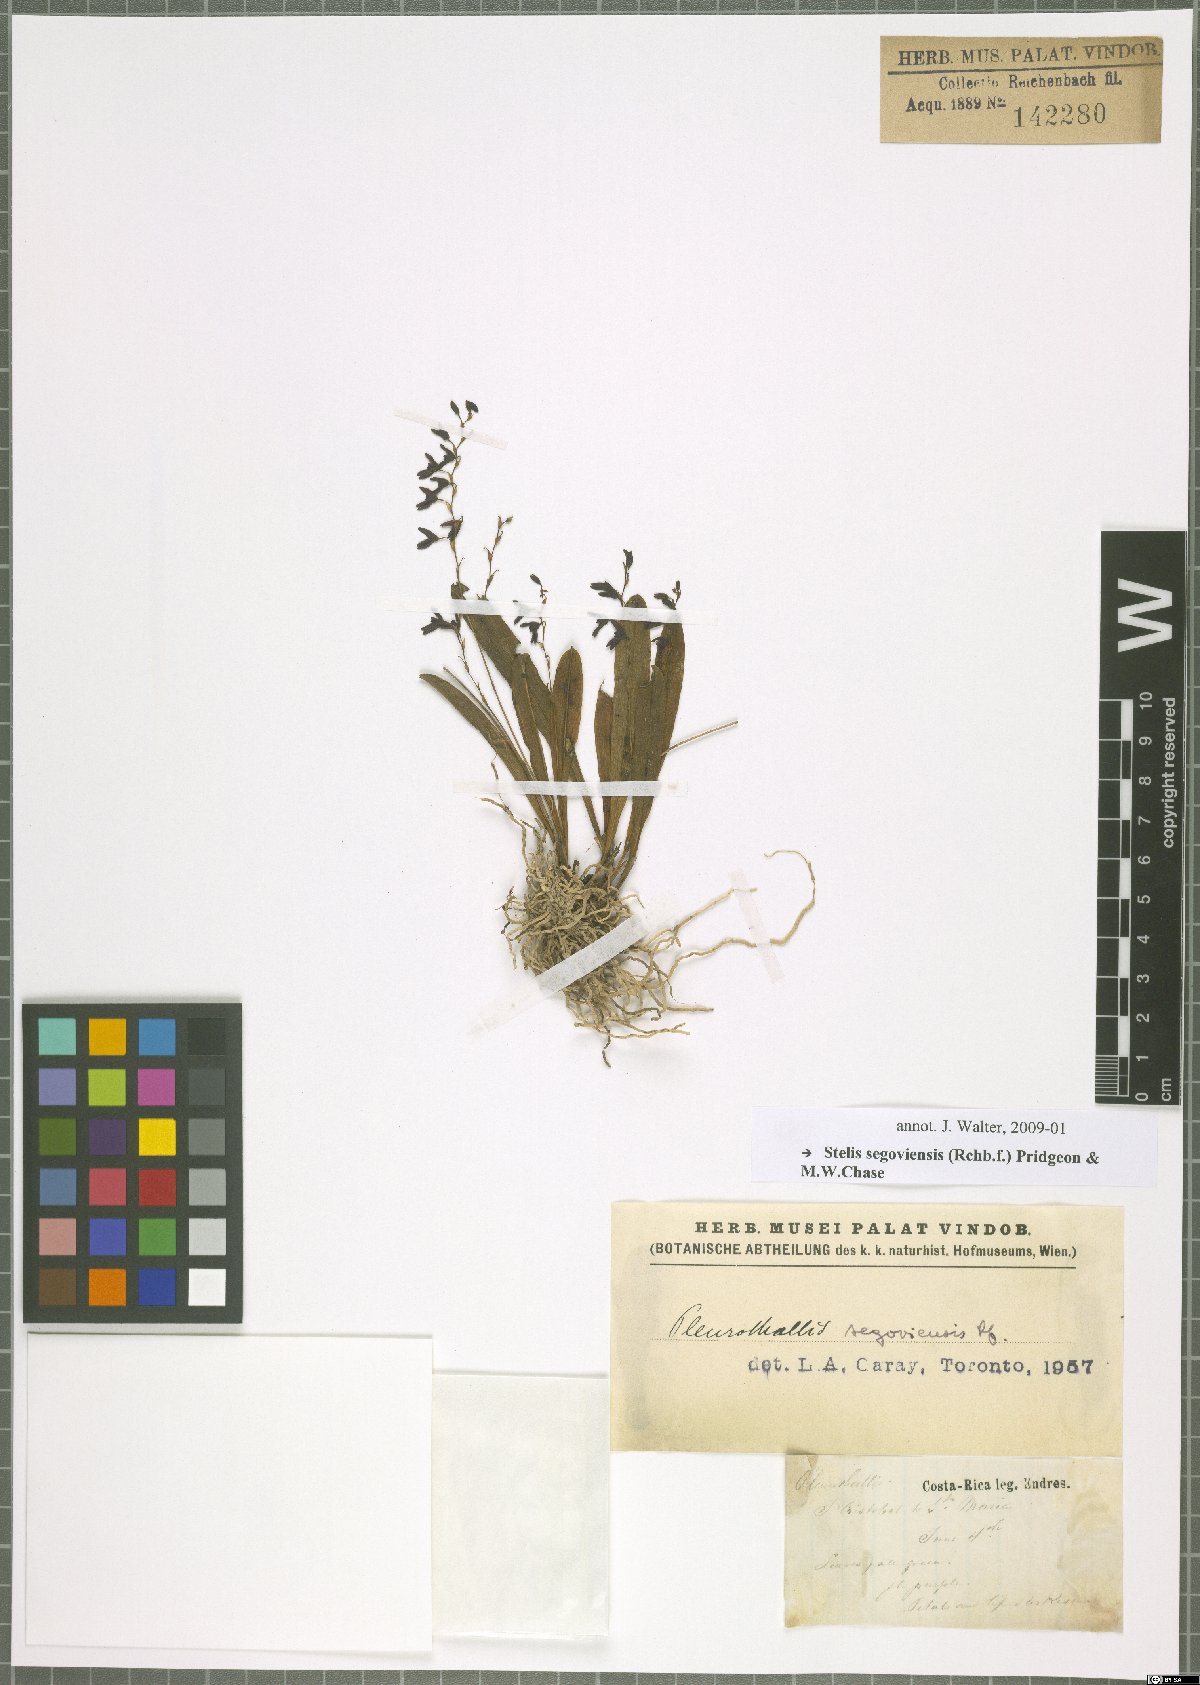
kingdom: Plantae
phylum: Tracheophyta
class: Liliopsida
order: Asparagales
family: Orchidaceae
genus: Stelis
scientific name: Stelis segoviensis
